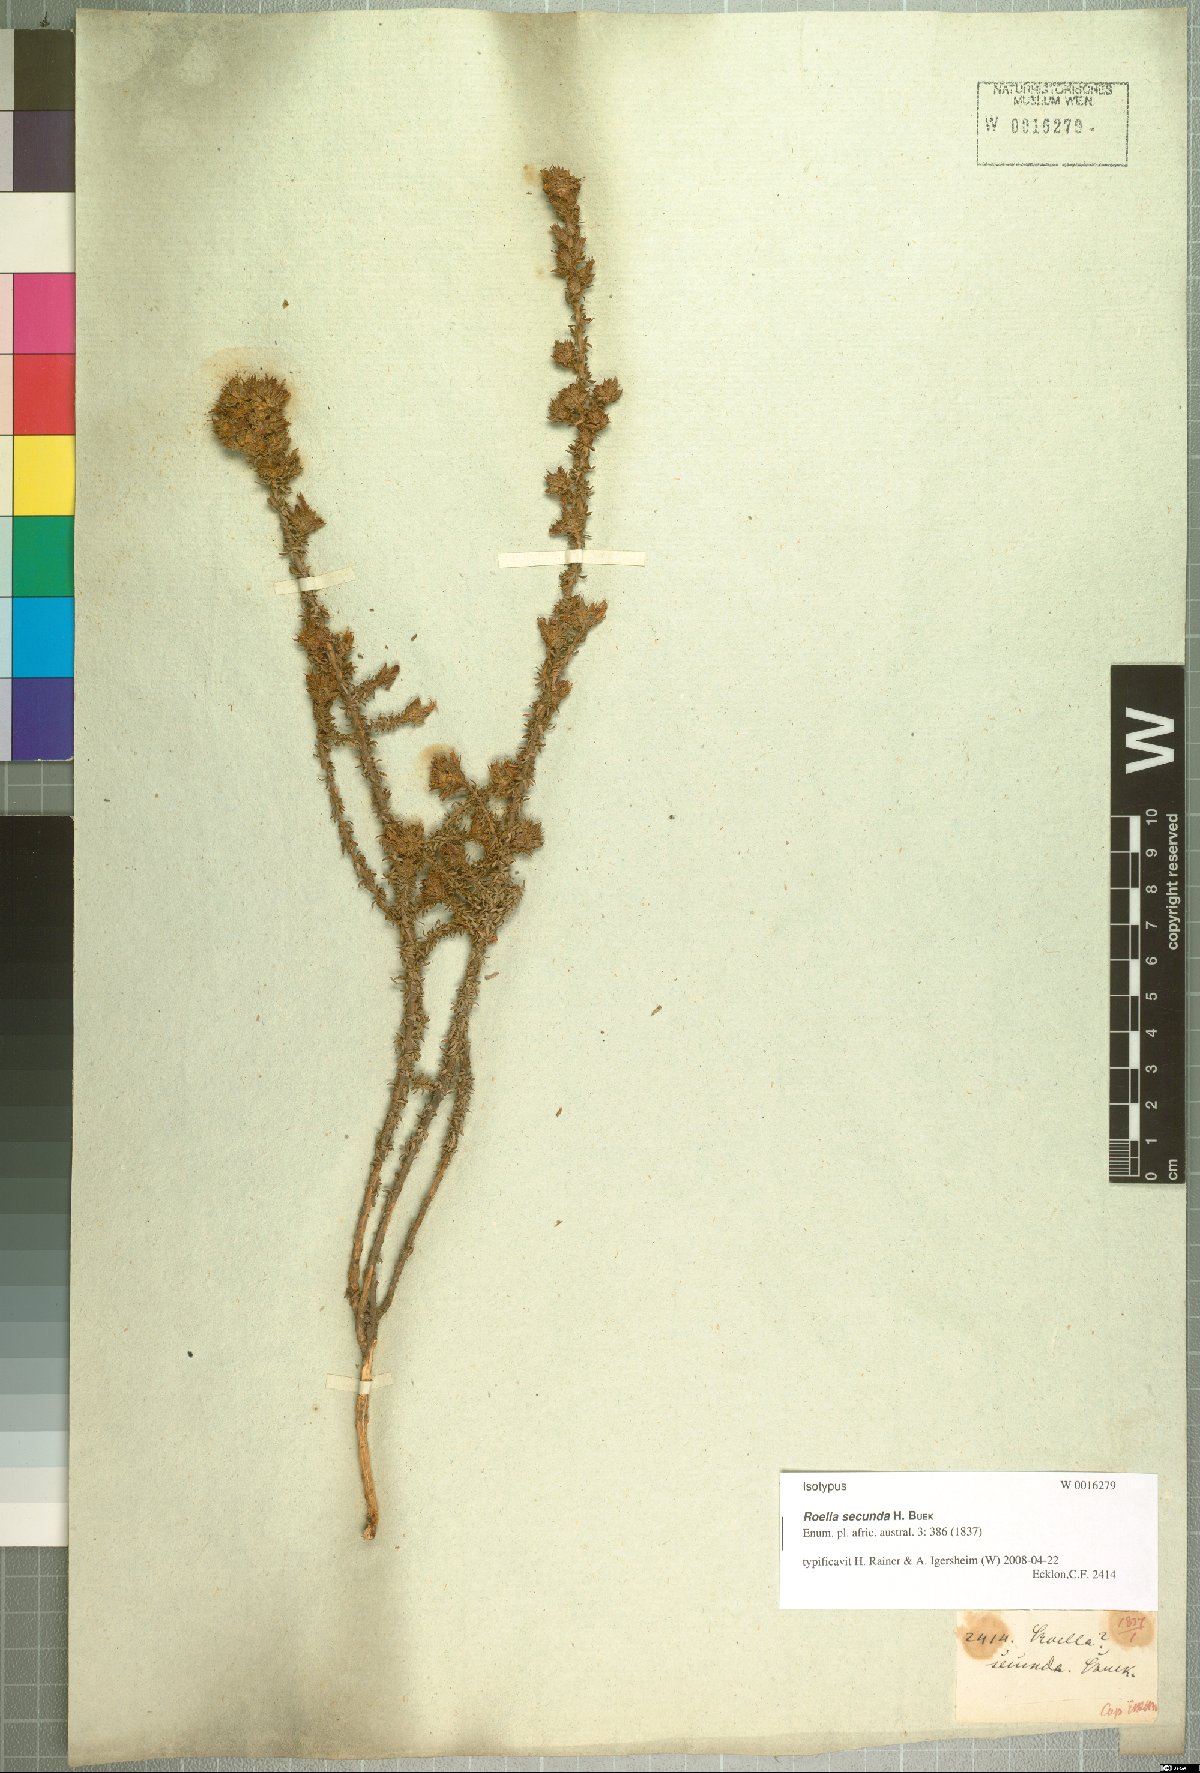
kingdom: Plantae
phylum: Tracheophyta
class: Magnoliopsida
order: Asterales
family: Campanulaceae
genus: Roella
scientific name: Roella secunda
